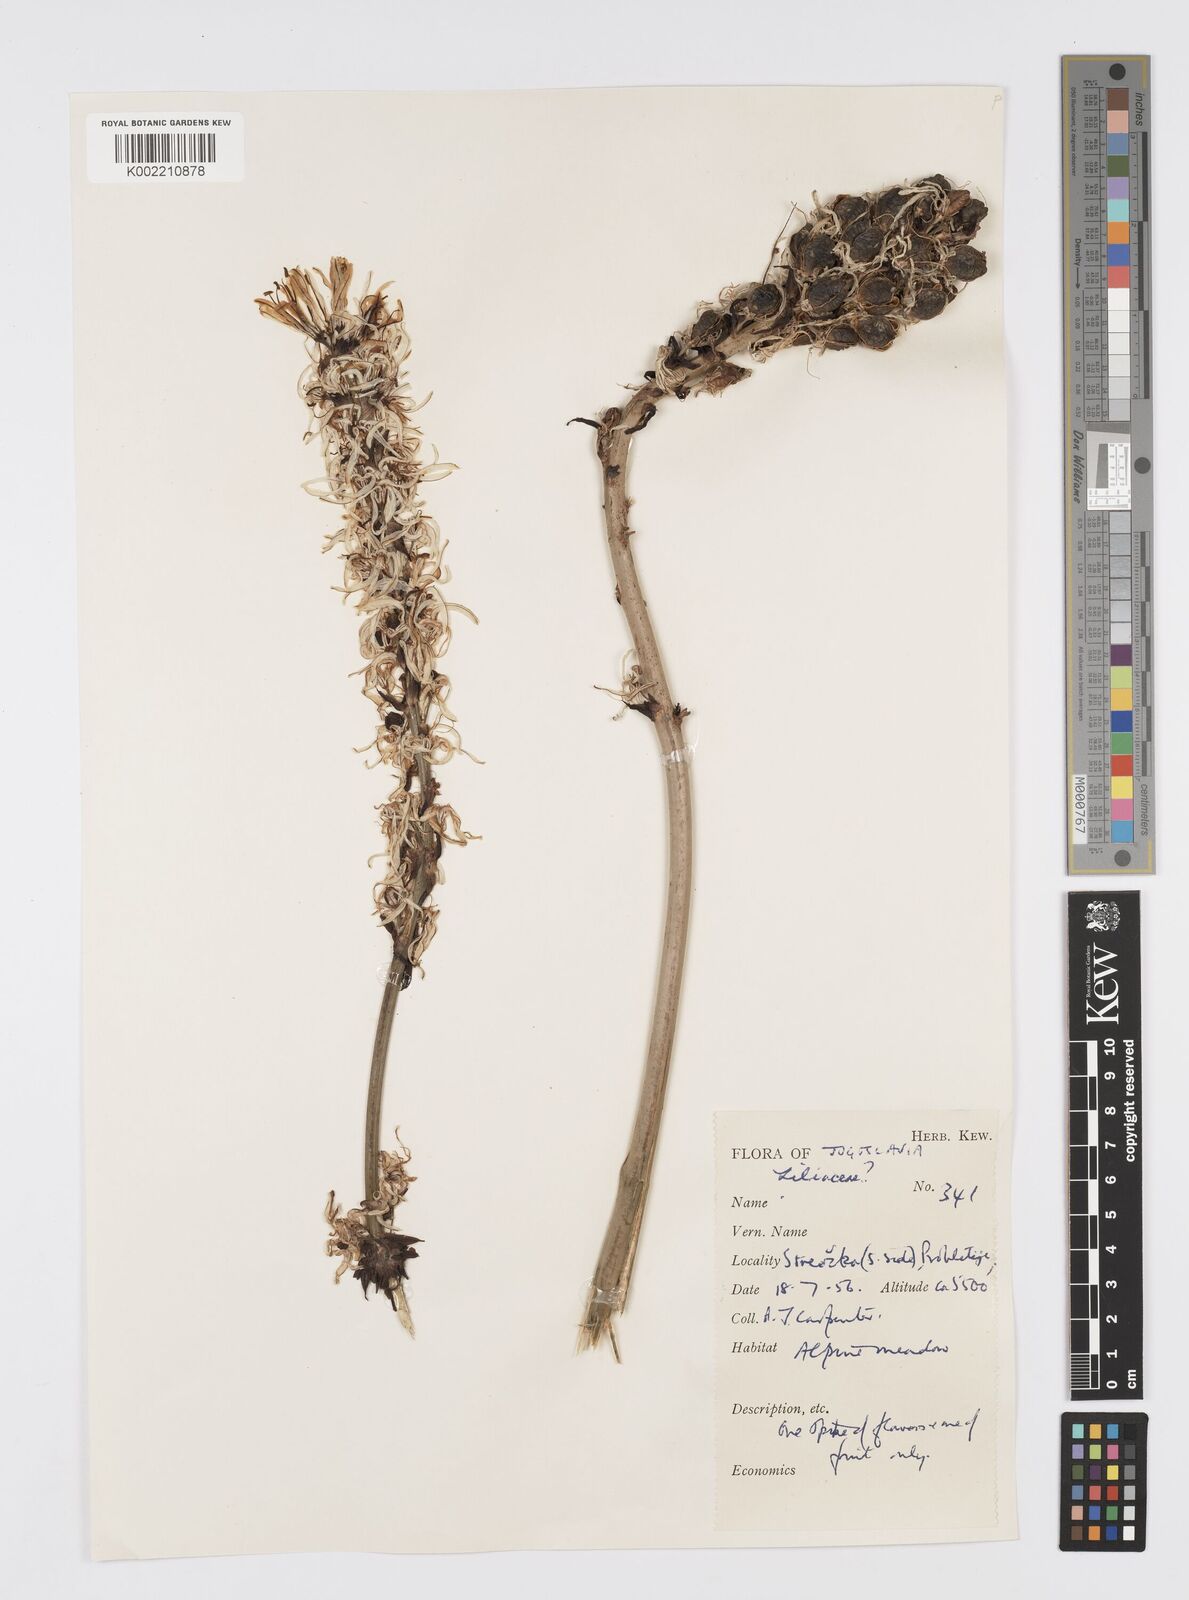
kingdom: Plantae
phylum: Tracheophyta
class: Liliopsida
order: Asparagales
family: Asphodelaceae
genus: Asphodelus
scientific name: Asphodelus albus
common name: White asphodel
